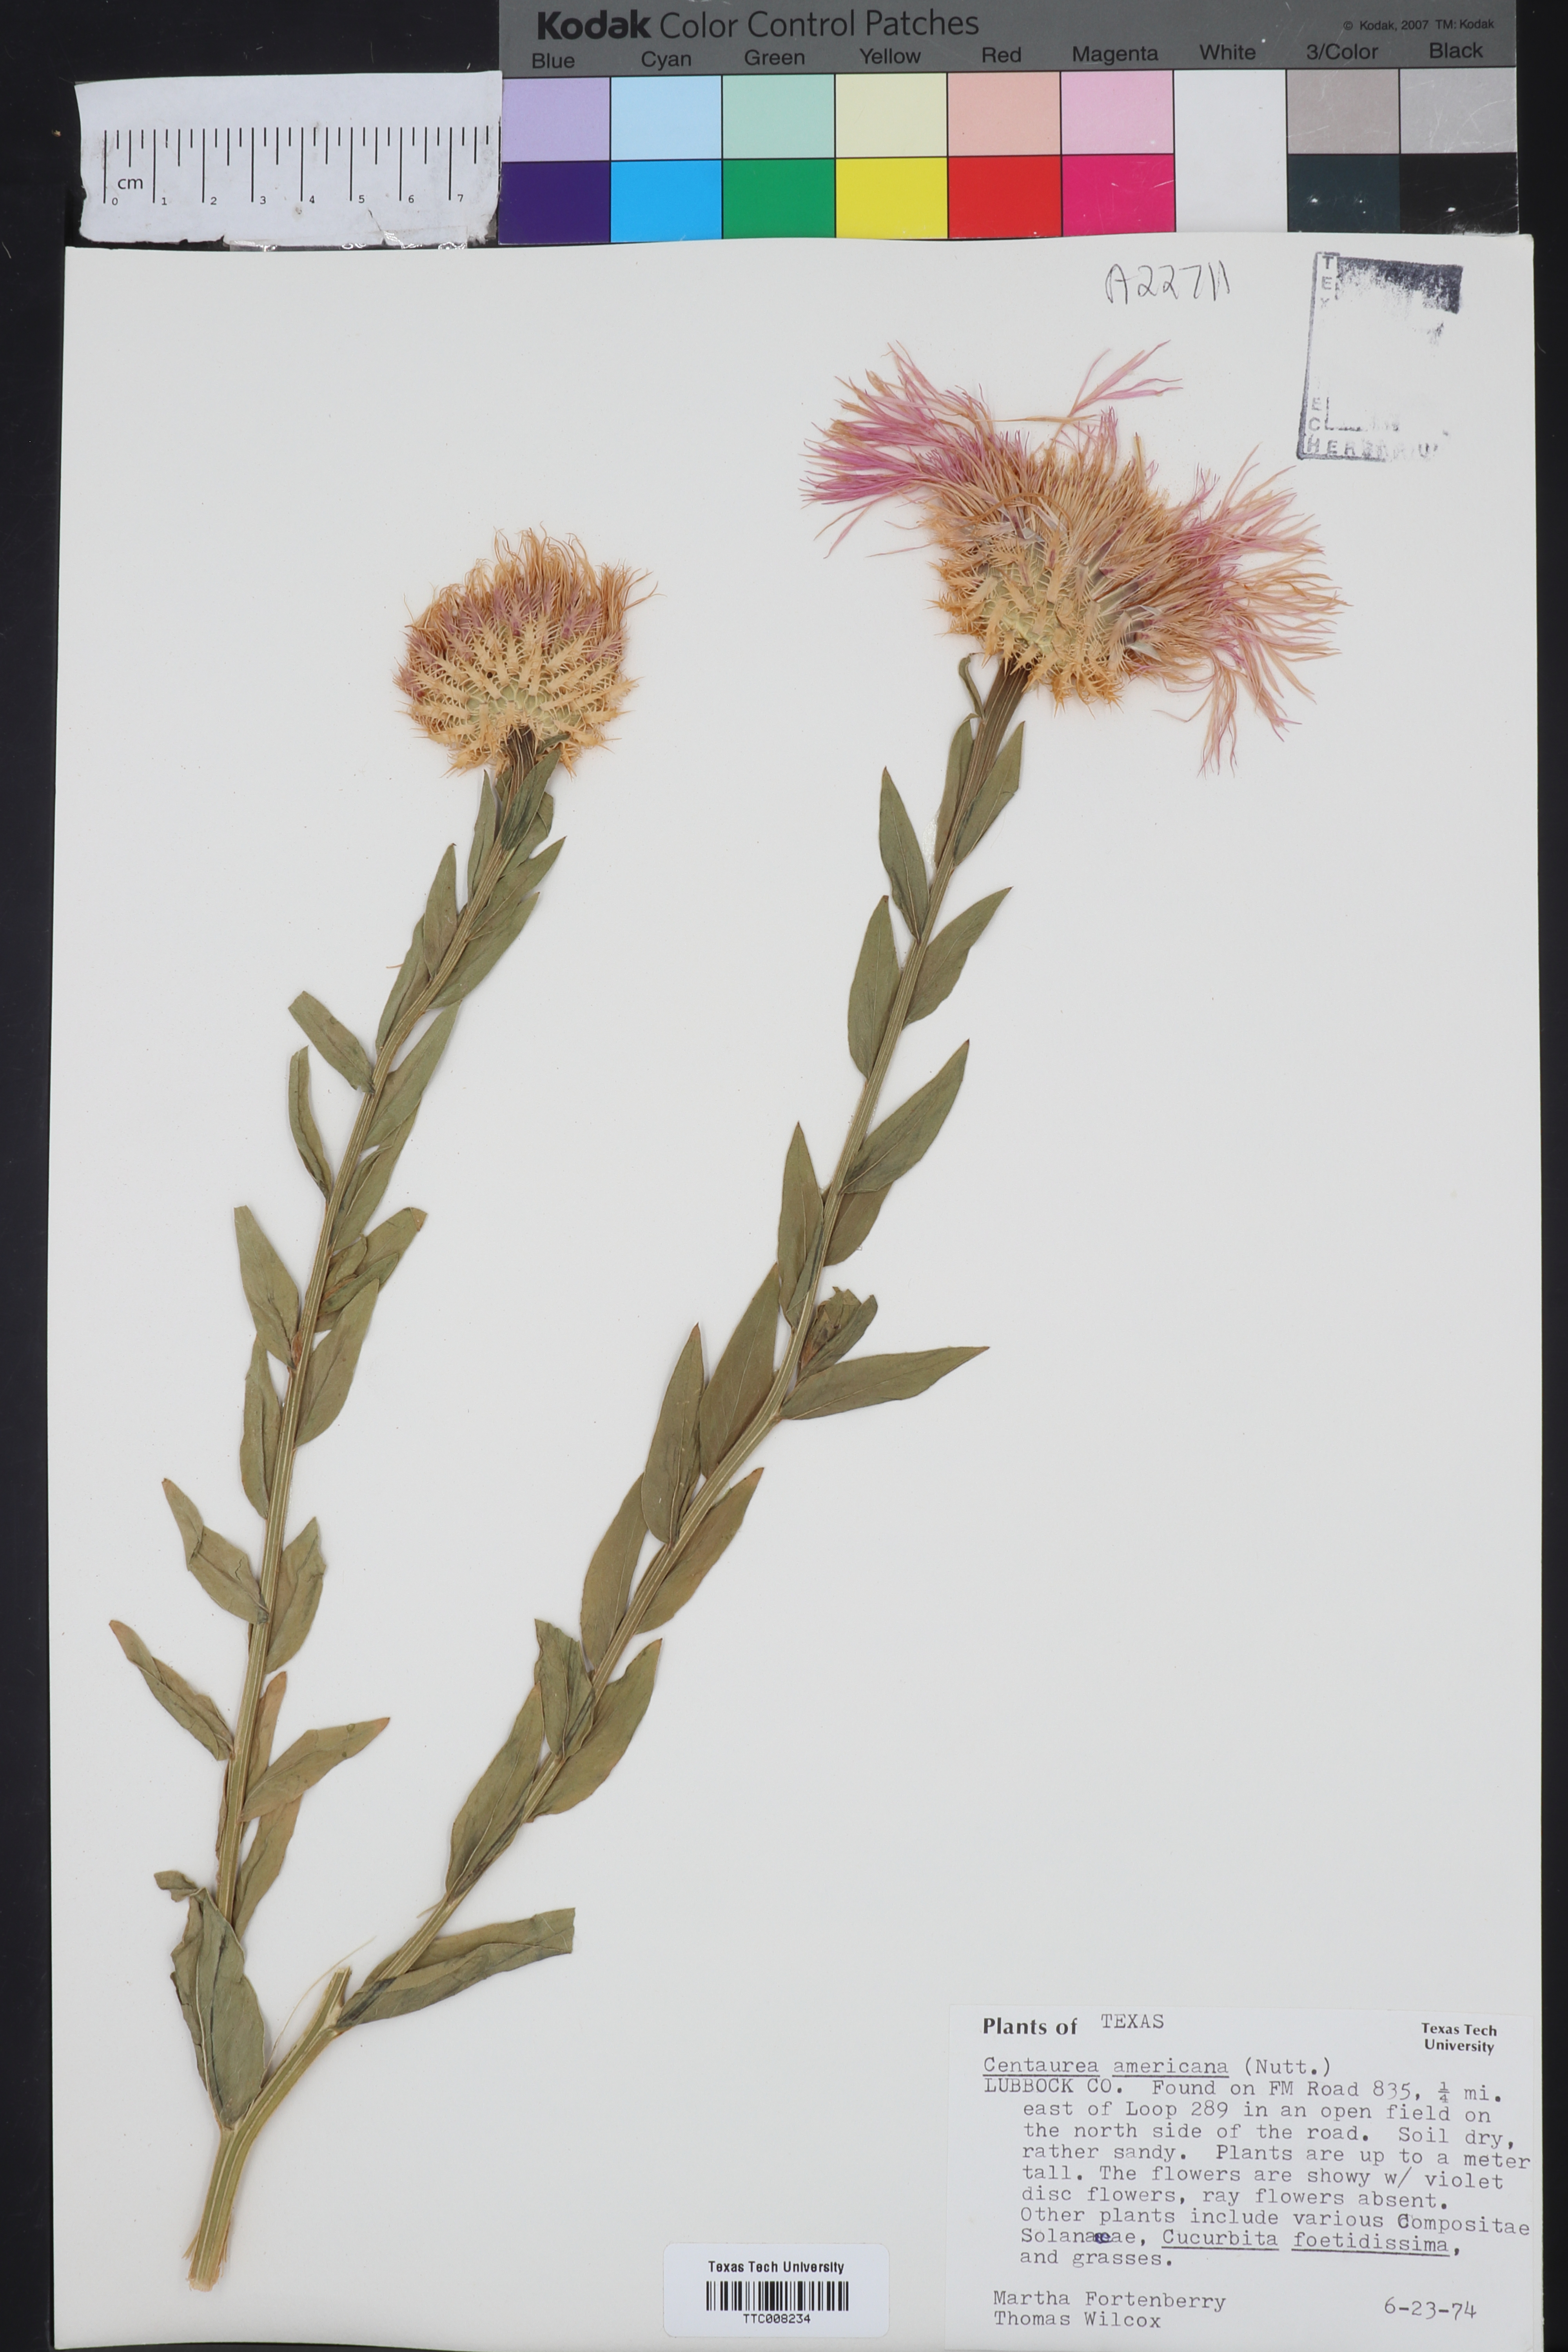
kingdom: Plantae
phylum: Tracheophyta
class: Magnoliopsida
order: Asterales
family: Asteraceae
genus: Plectocephalus
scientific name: Plectocephalus americanus
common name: American basket-flower
